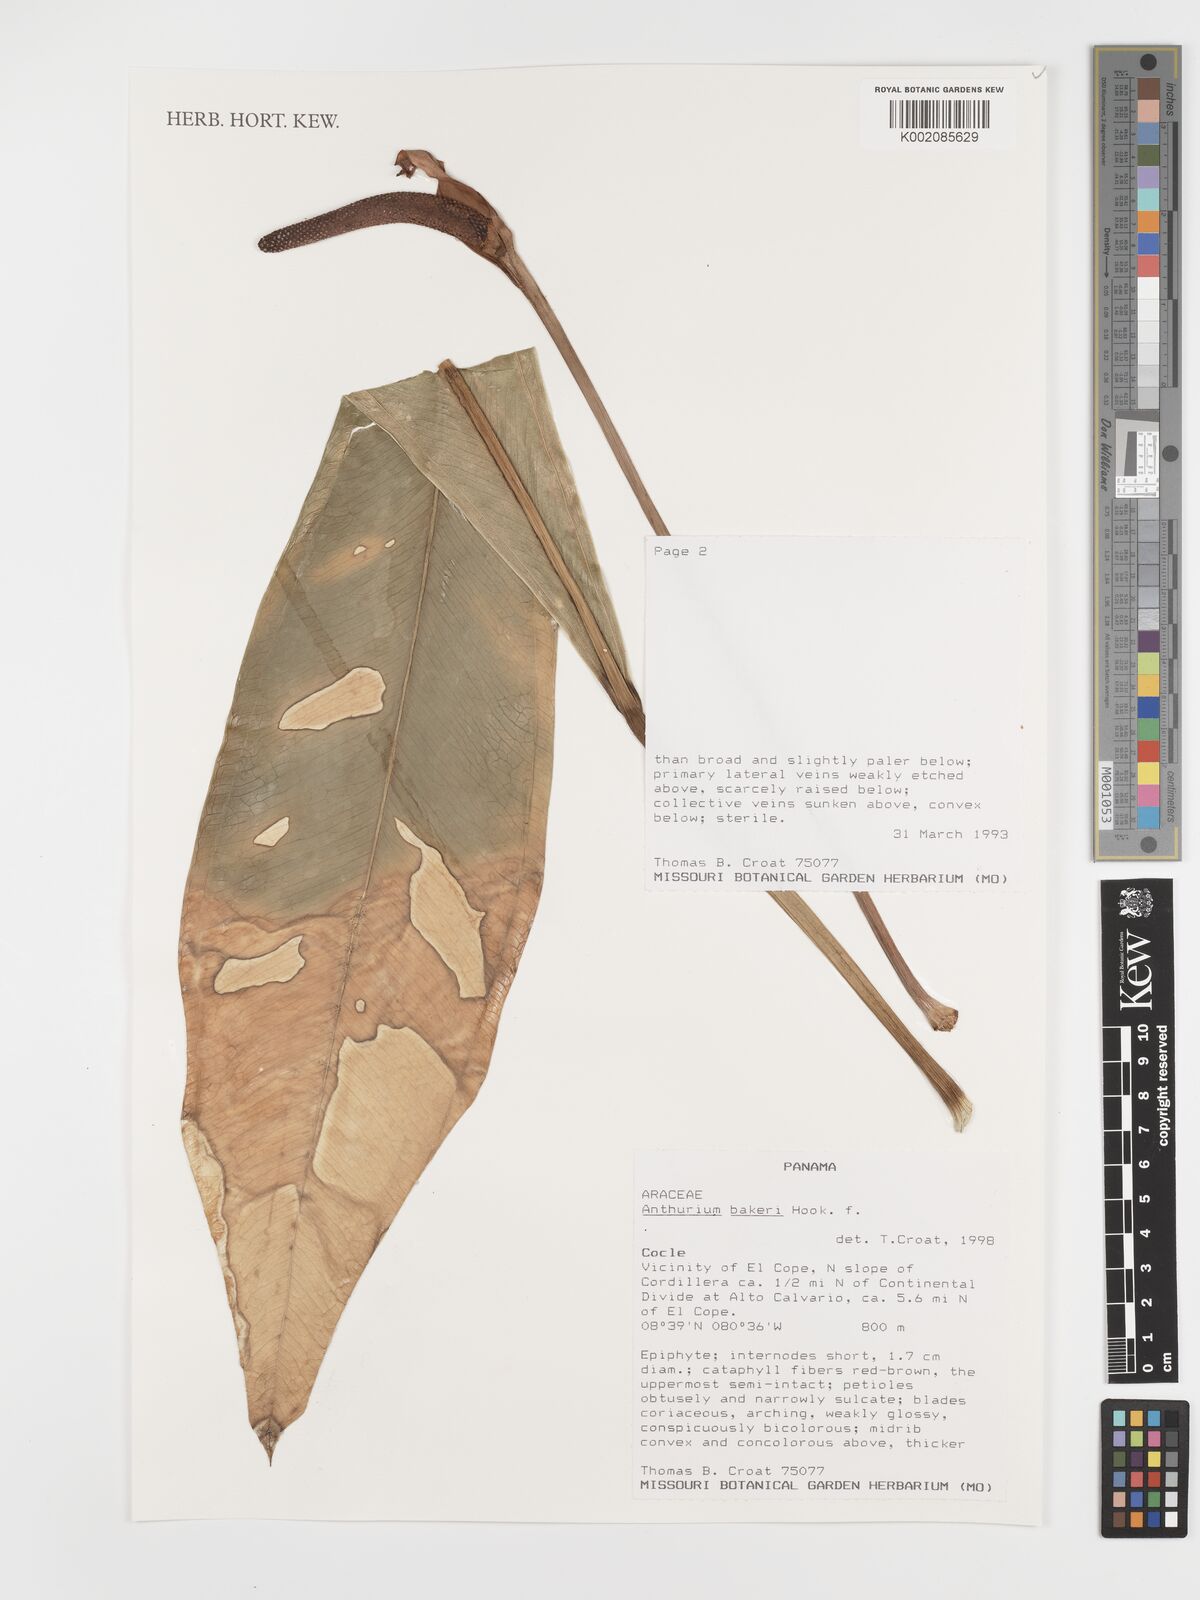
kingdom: Plantae
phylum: Tracheophyta
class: Liliopsida
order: Alismatales
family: Araceae
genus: Anthurium
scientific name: Anthurium bakeri
